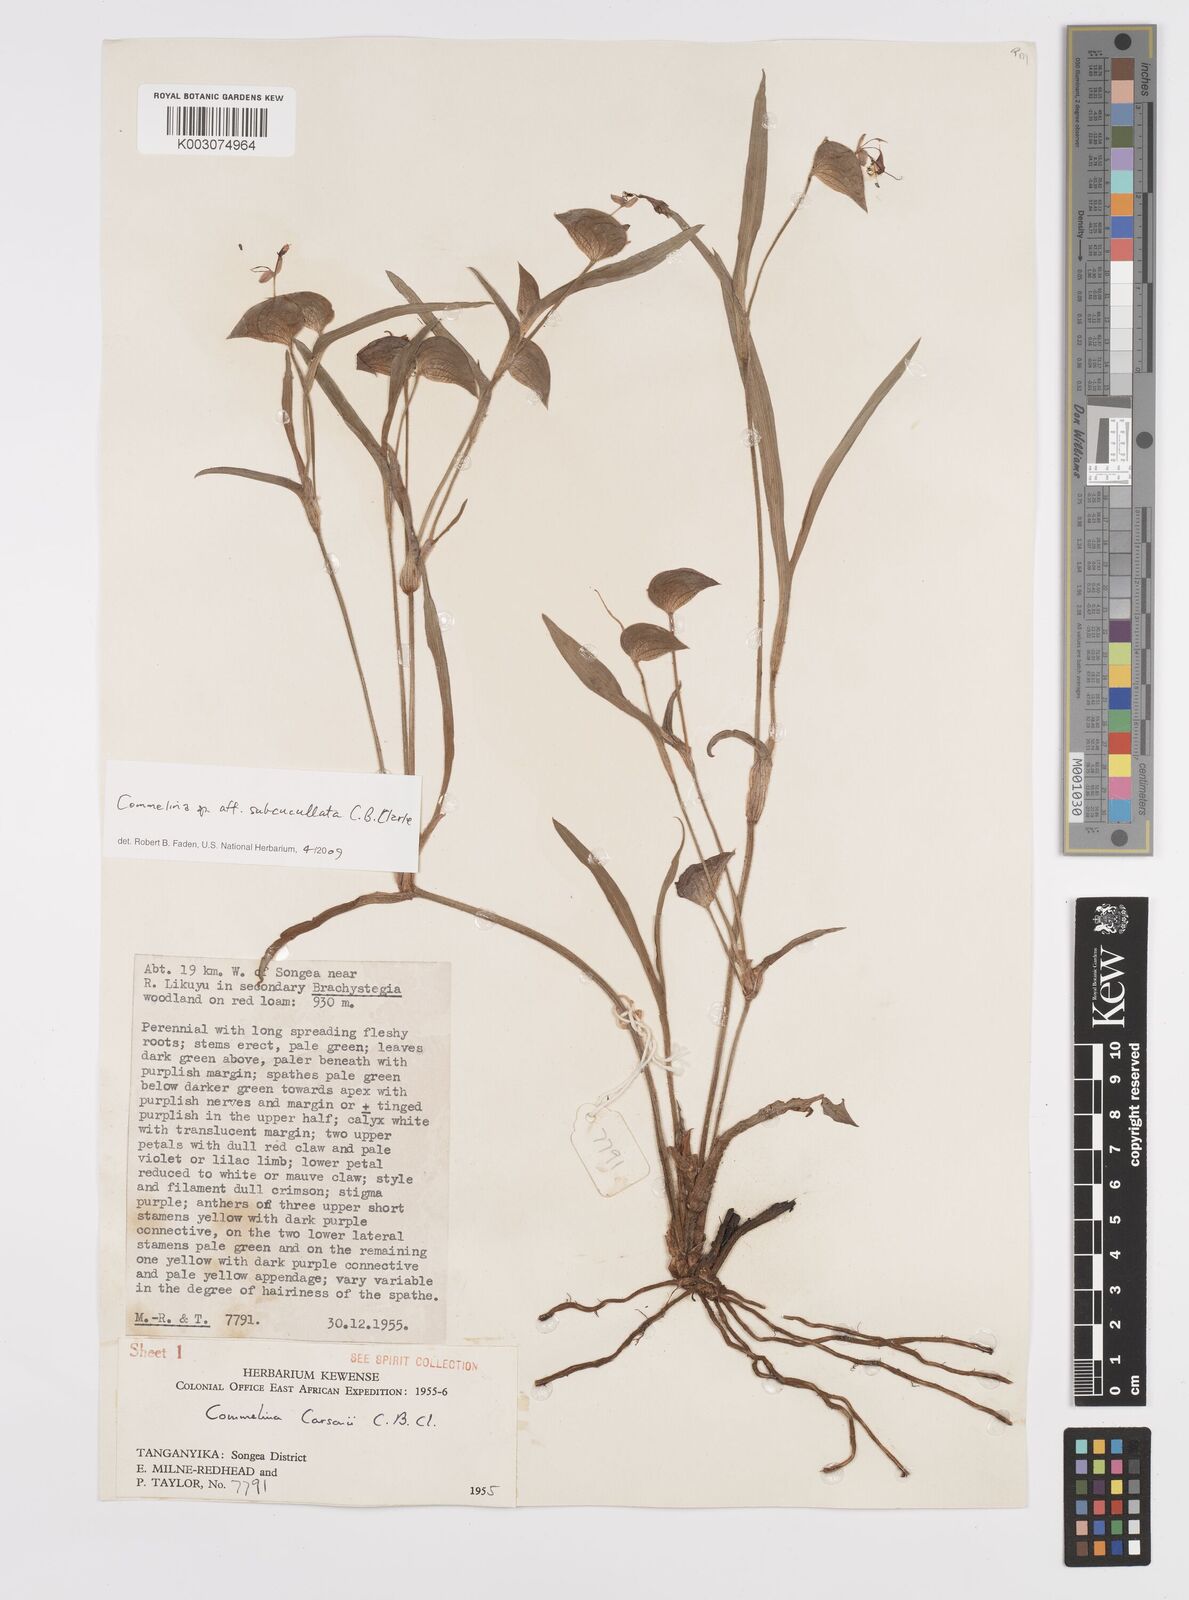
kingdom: Plantae
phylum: Tracheophyta
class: Liliopsida
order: Commelinales
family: Commelinaceae
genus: Commelina
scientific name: Commelina subcucullata
